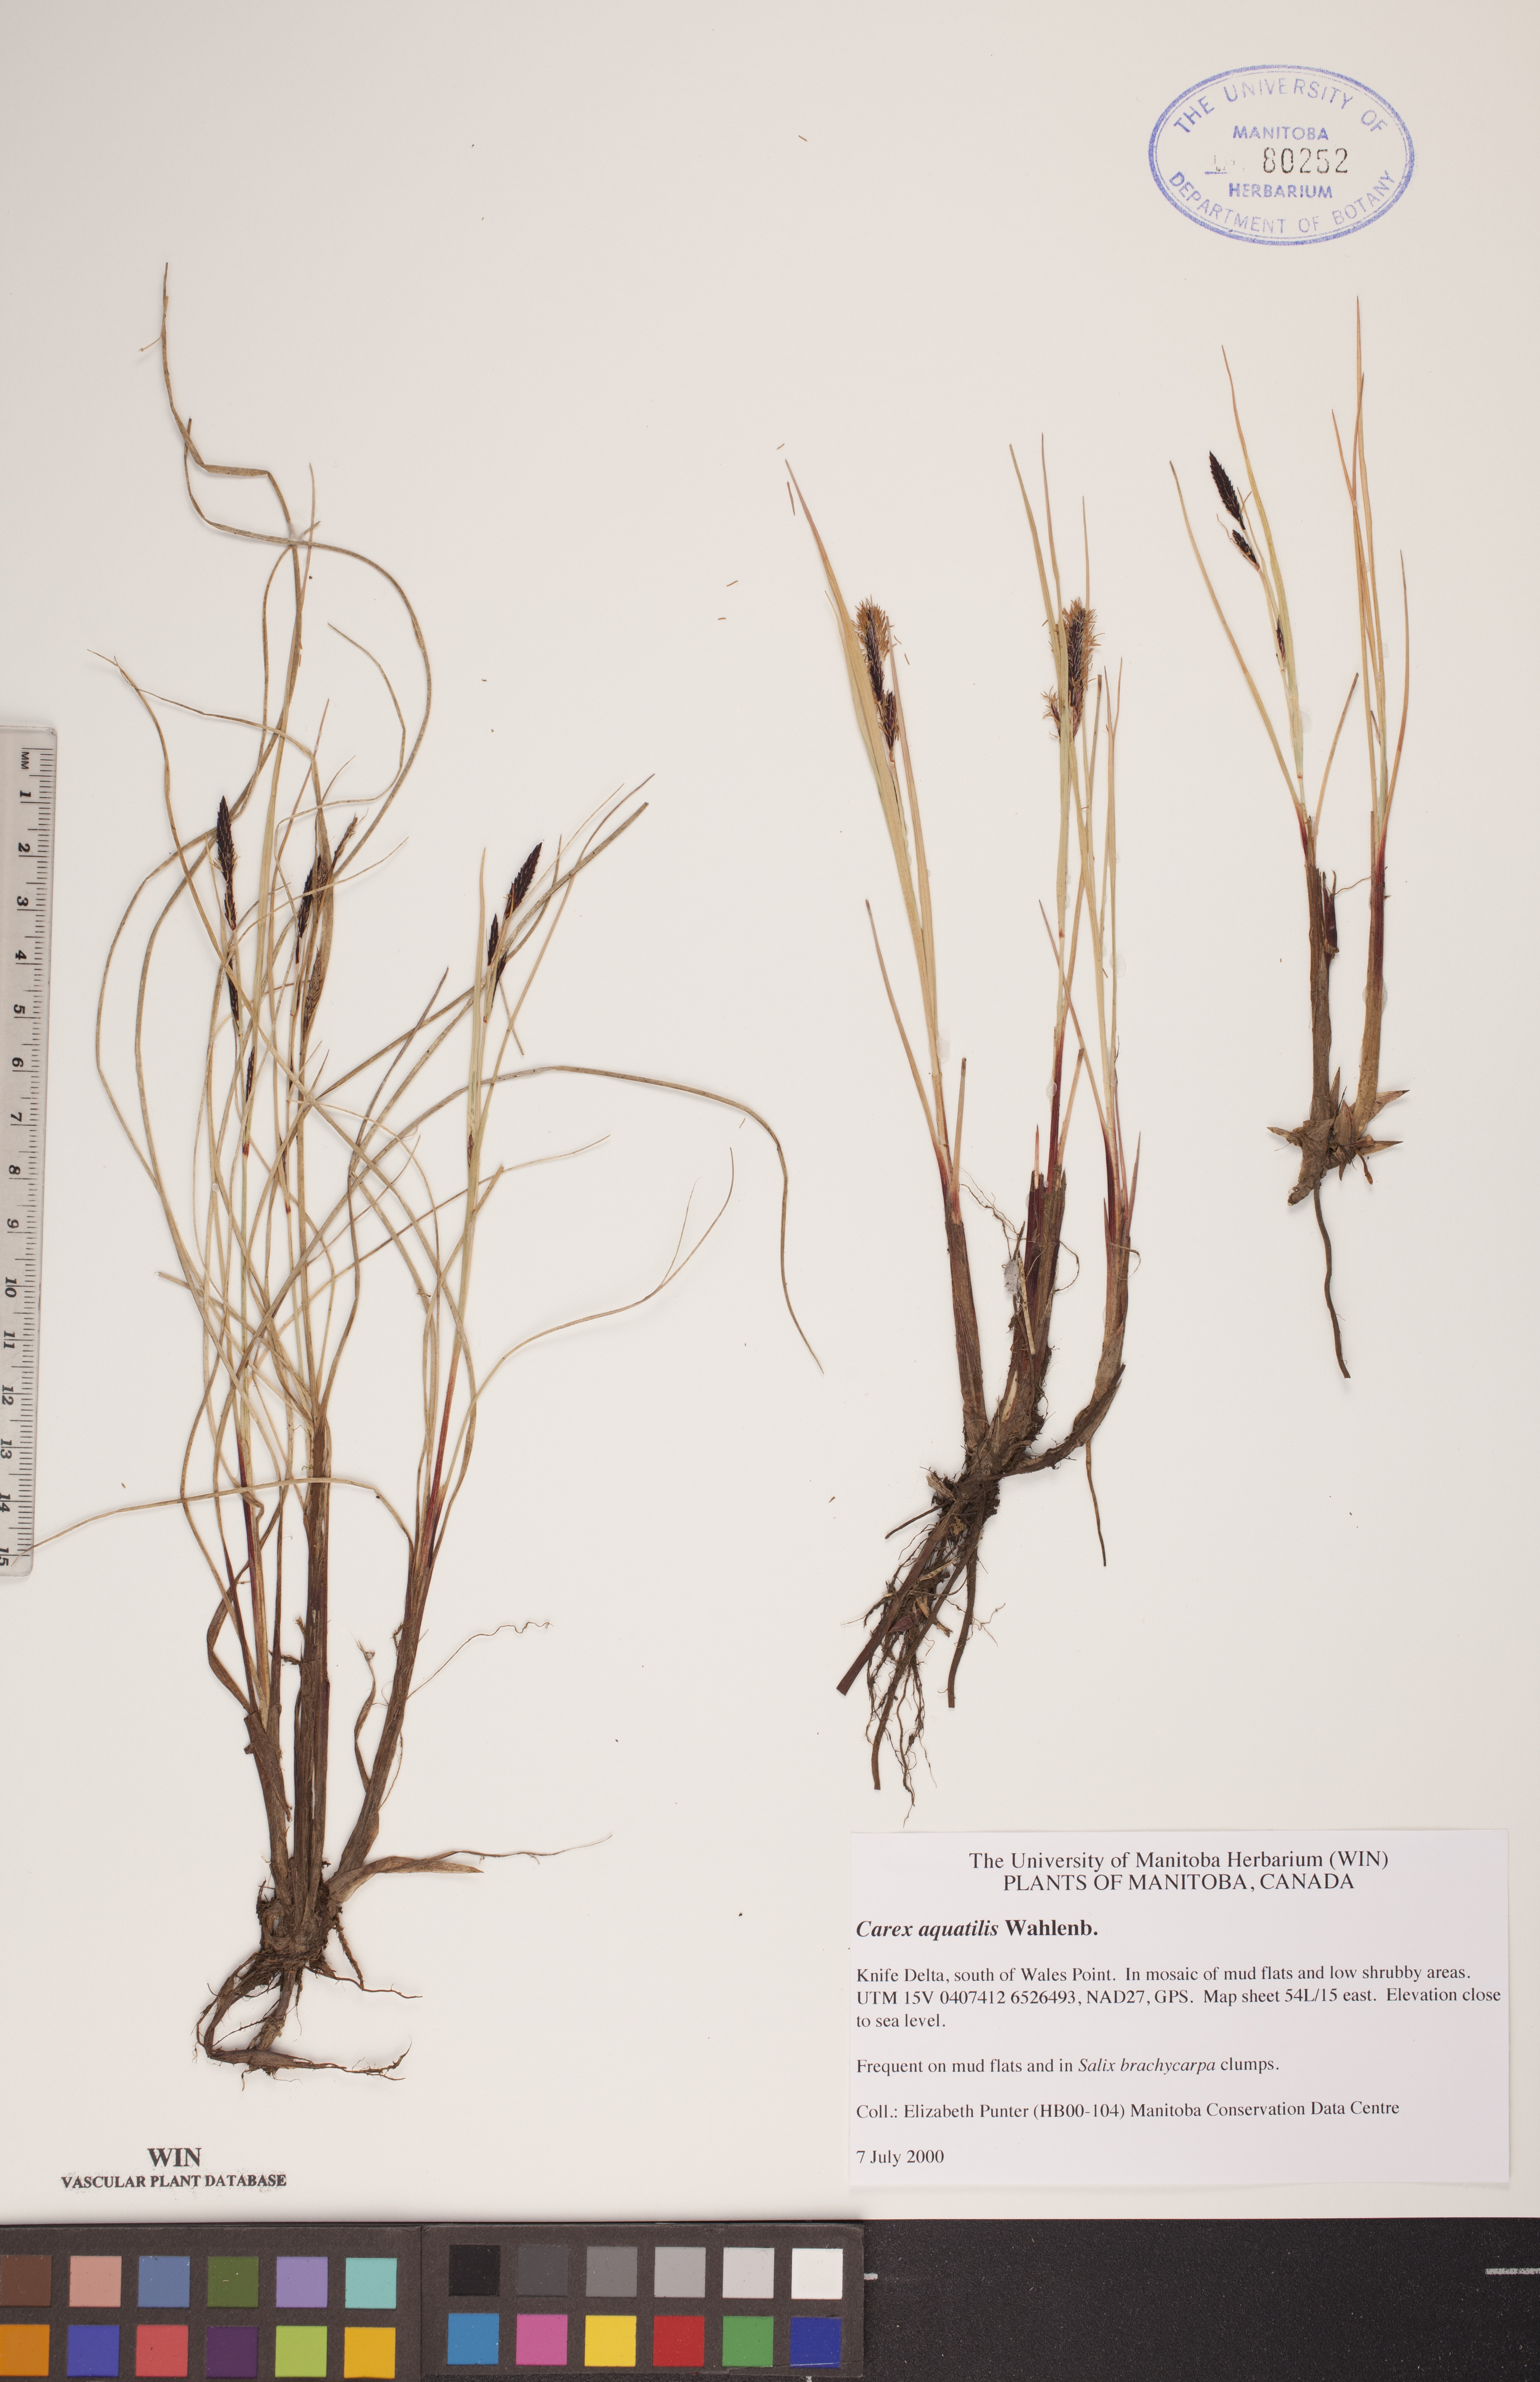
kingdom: Plantae
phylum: Tracheophyta
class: Liliopsida
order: Poales
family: Cyperaceae
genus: Carex
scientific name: Carex aquatilis
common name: Water sedge
